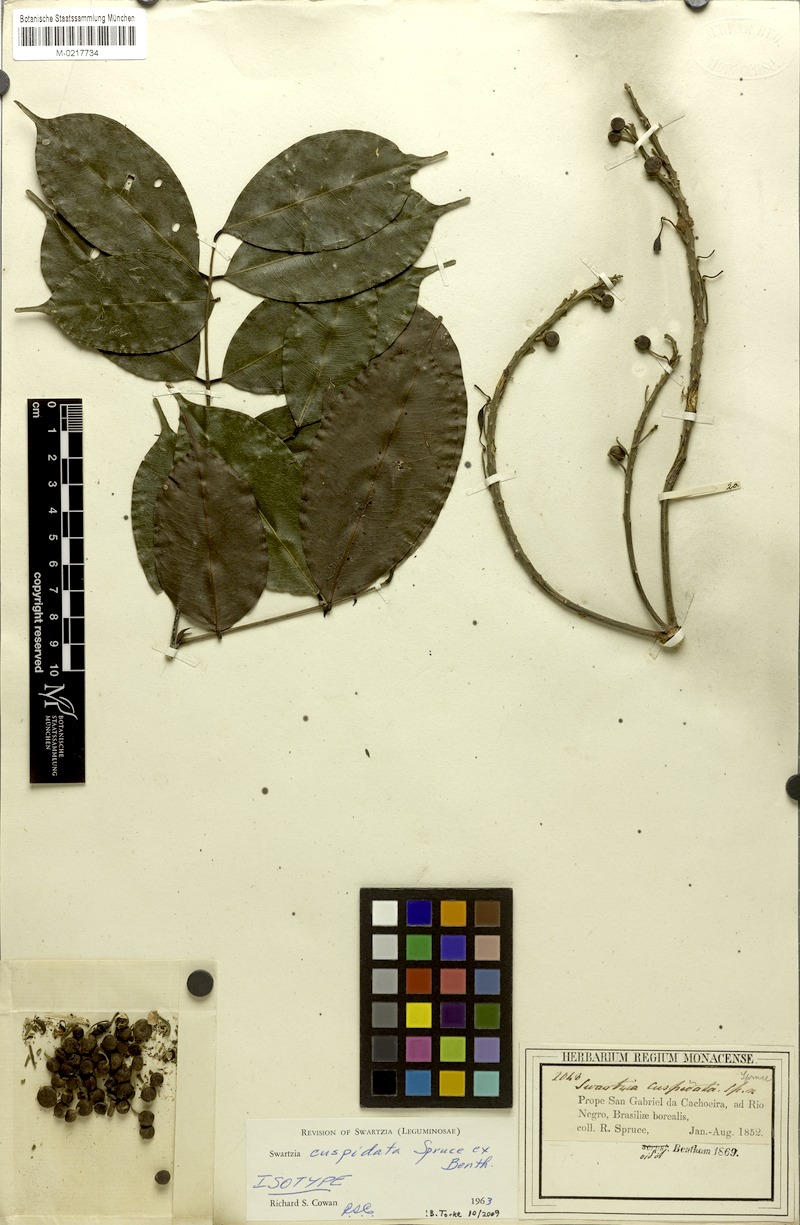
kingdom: Plantae
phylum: Tracheophyta
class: Magnoliopsida
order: Fabales
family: Fabaceae
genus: Swartzia
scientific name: Swartzia cuspidata
